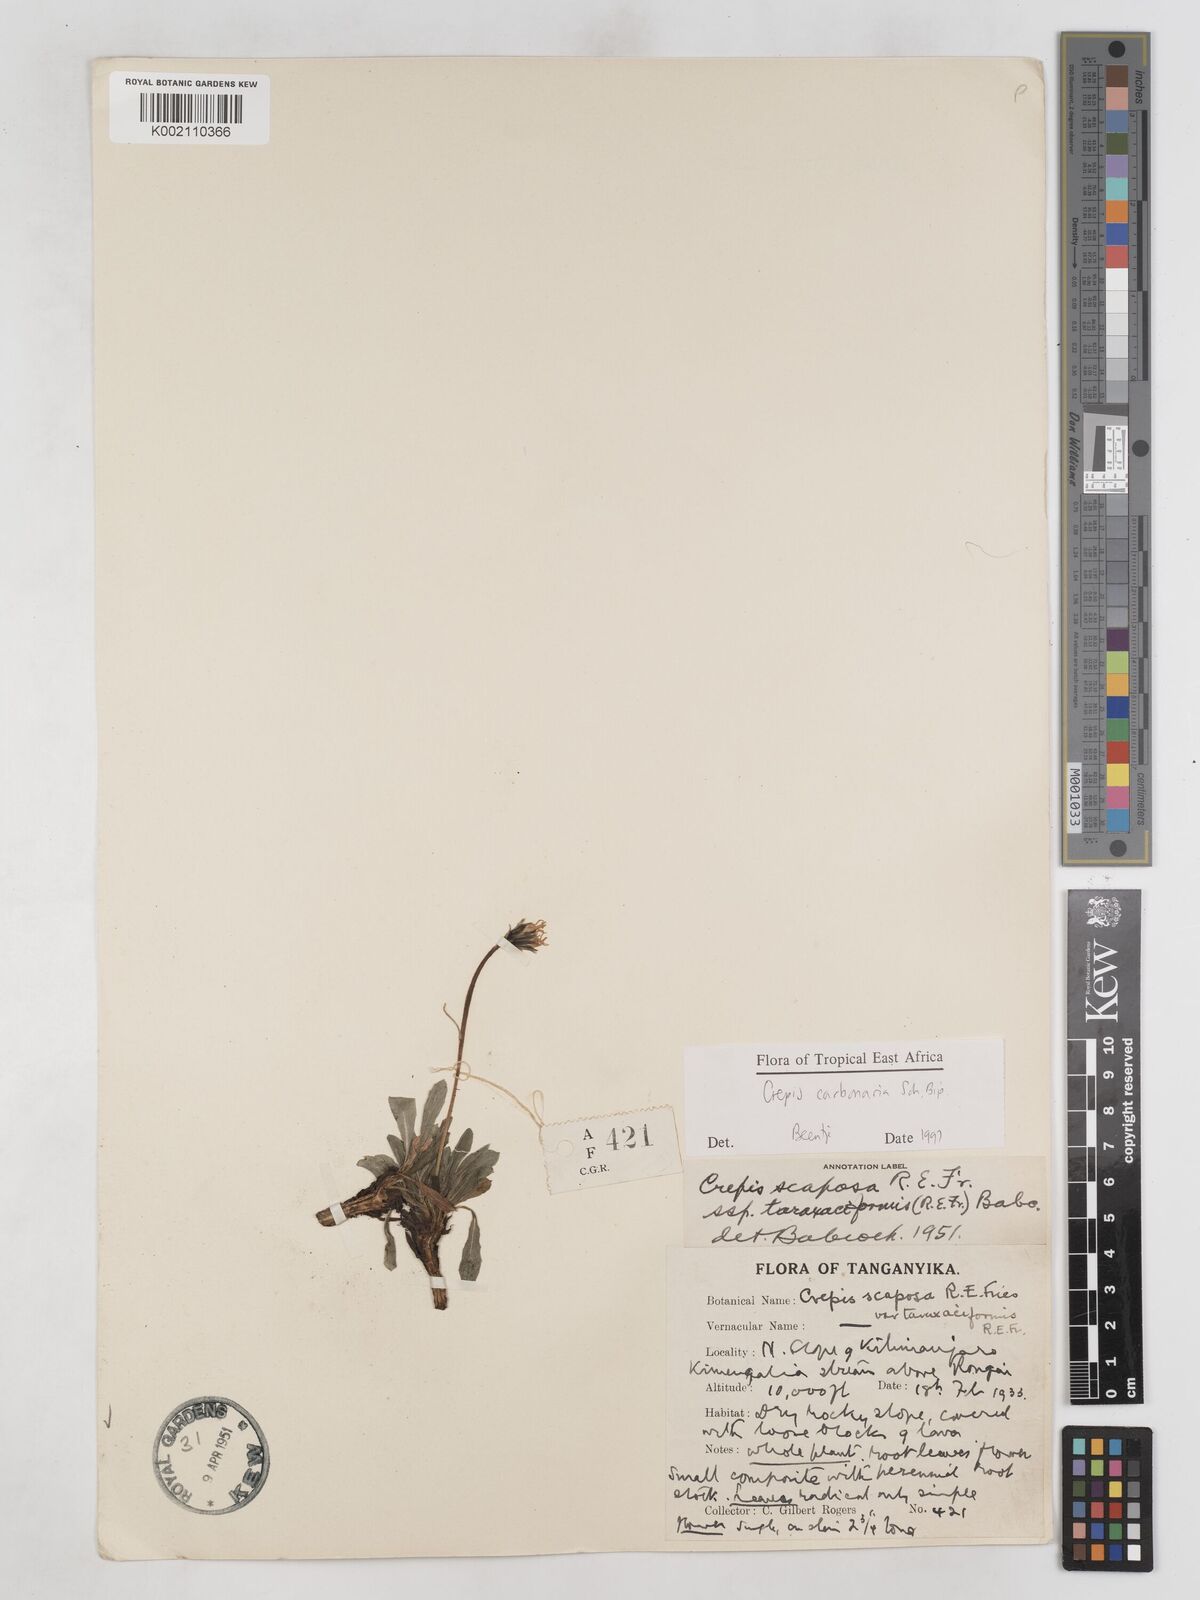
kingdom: Plantae
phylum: Tracheophyta
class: Magnoliopsida
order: Asterales
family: Asteraceae
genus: Crepis
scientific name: Crepis carbonaria
